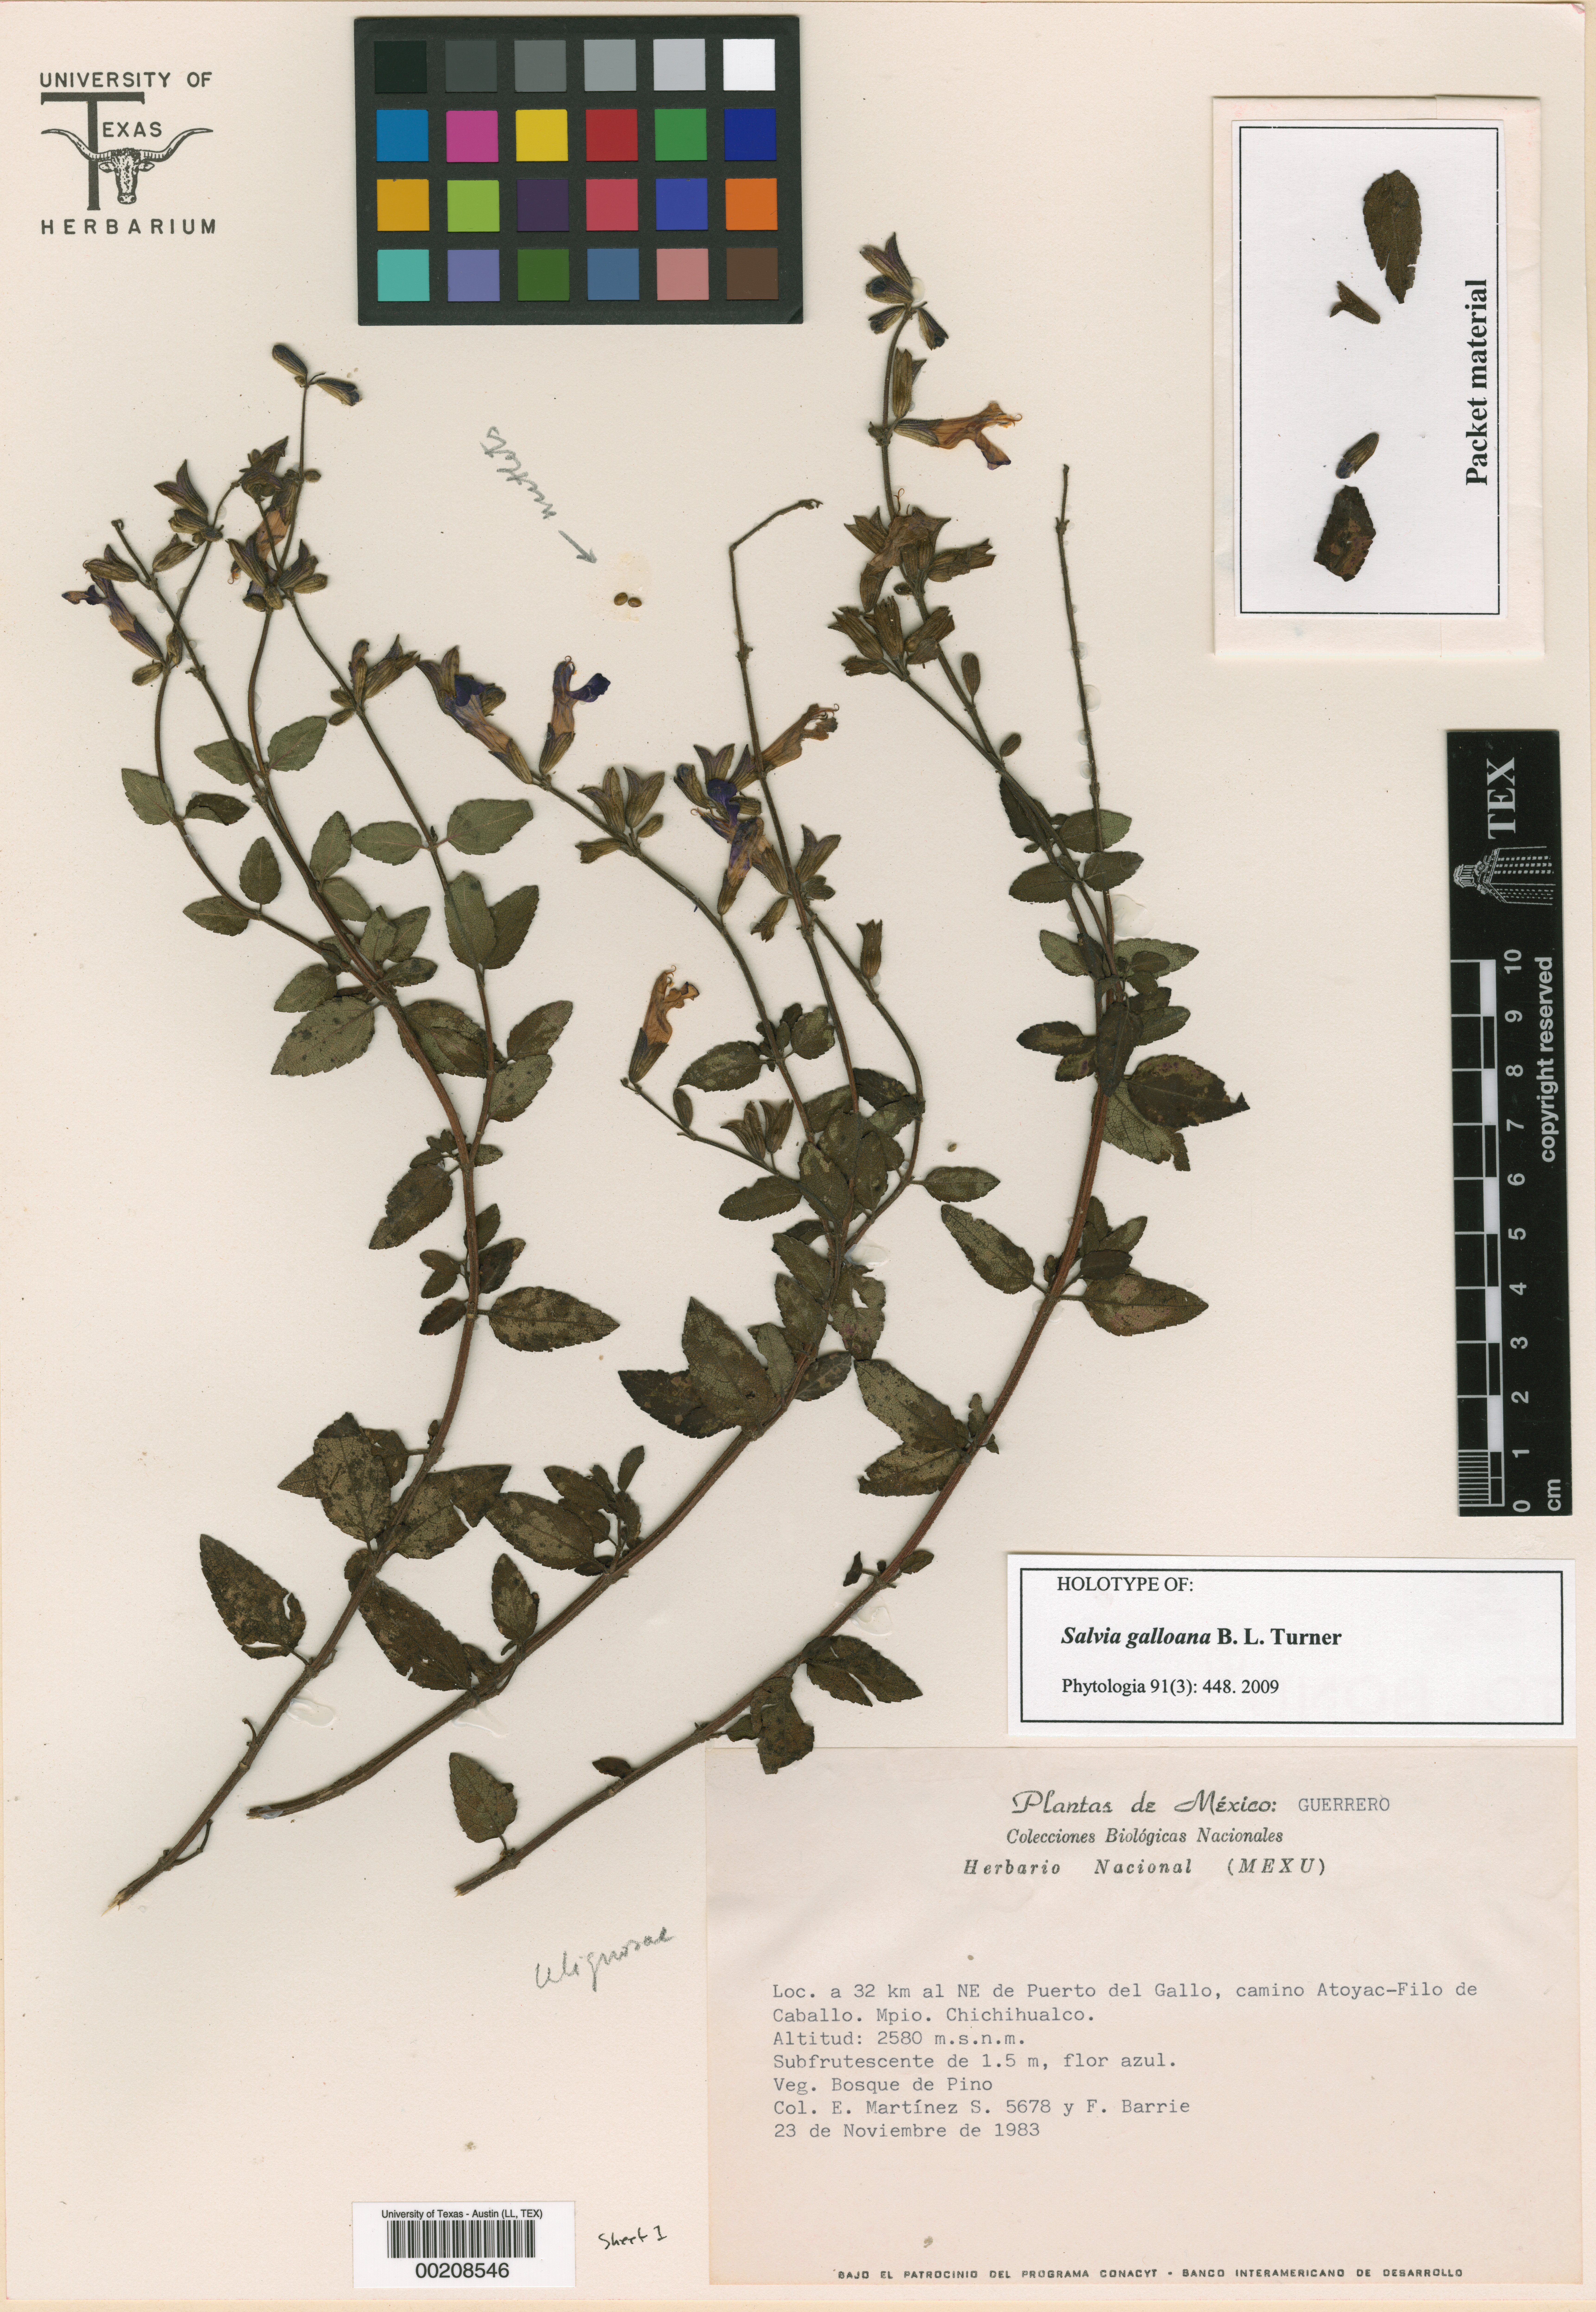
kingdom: Plantae
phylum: Tracheophyta
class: Magnoliopsida
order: Malpighiales
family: Hypericaceae
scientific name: Hypericaceae
